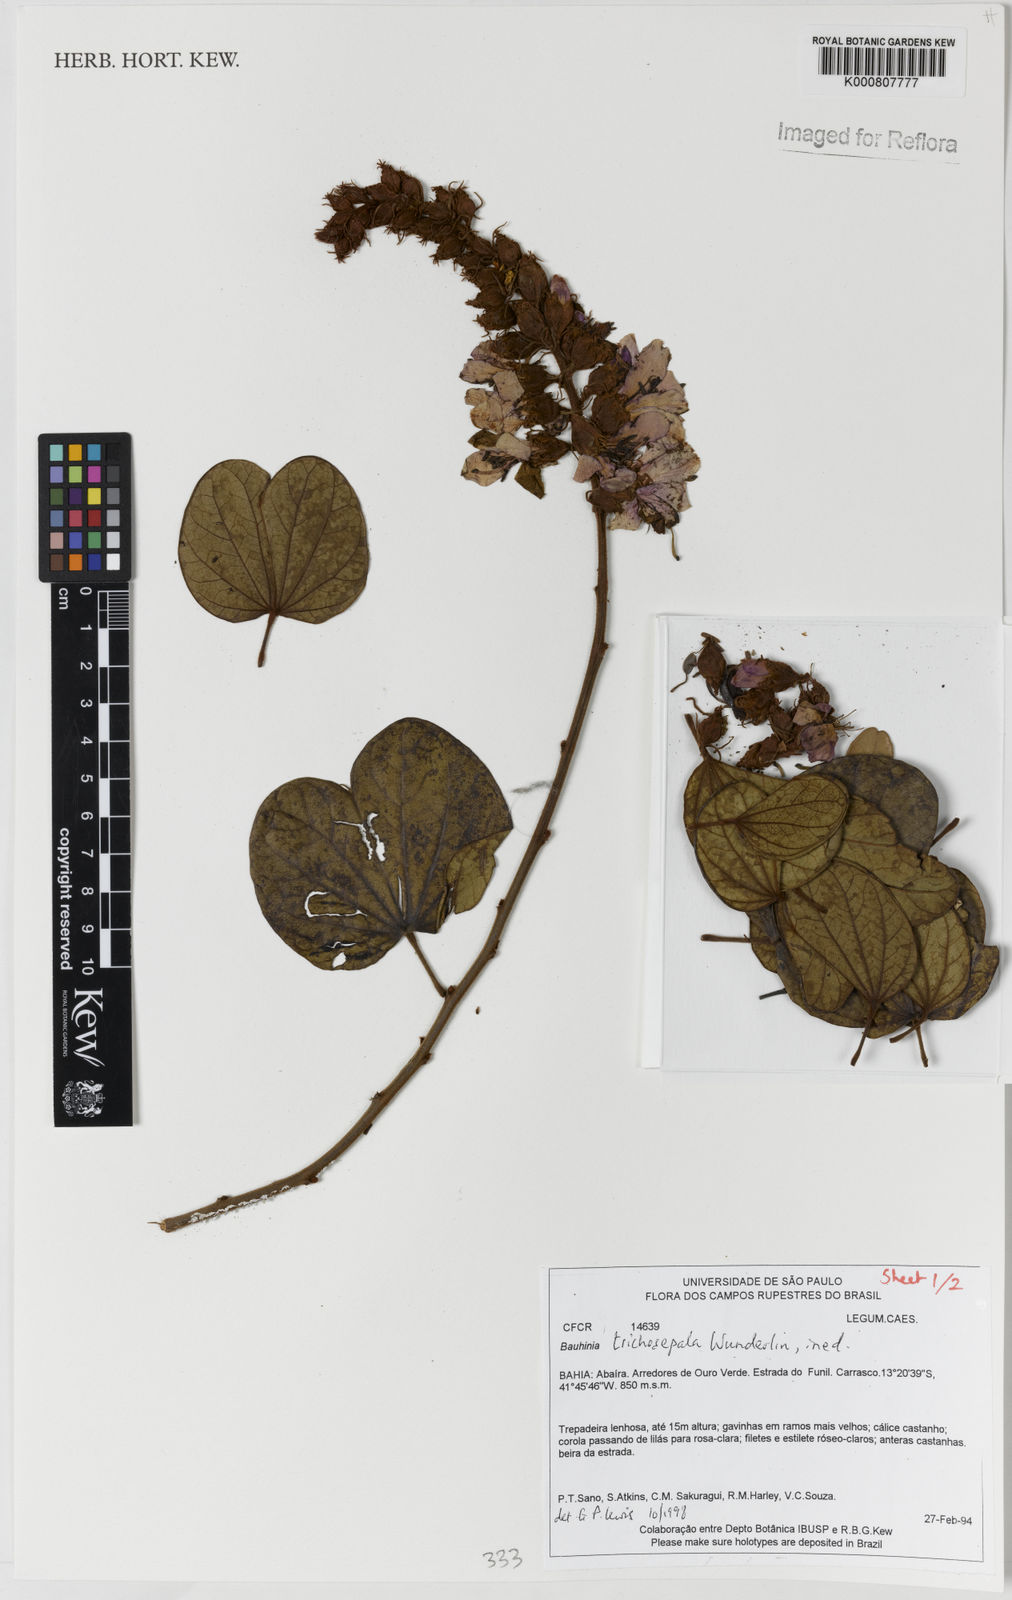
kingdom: Plantae
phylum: Tracheophyta
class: Magnoliopsida
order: Fabales
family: Fabaceae
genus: Schnella
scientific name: Schnella trichosepala
